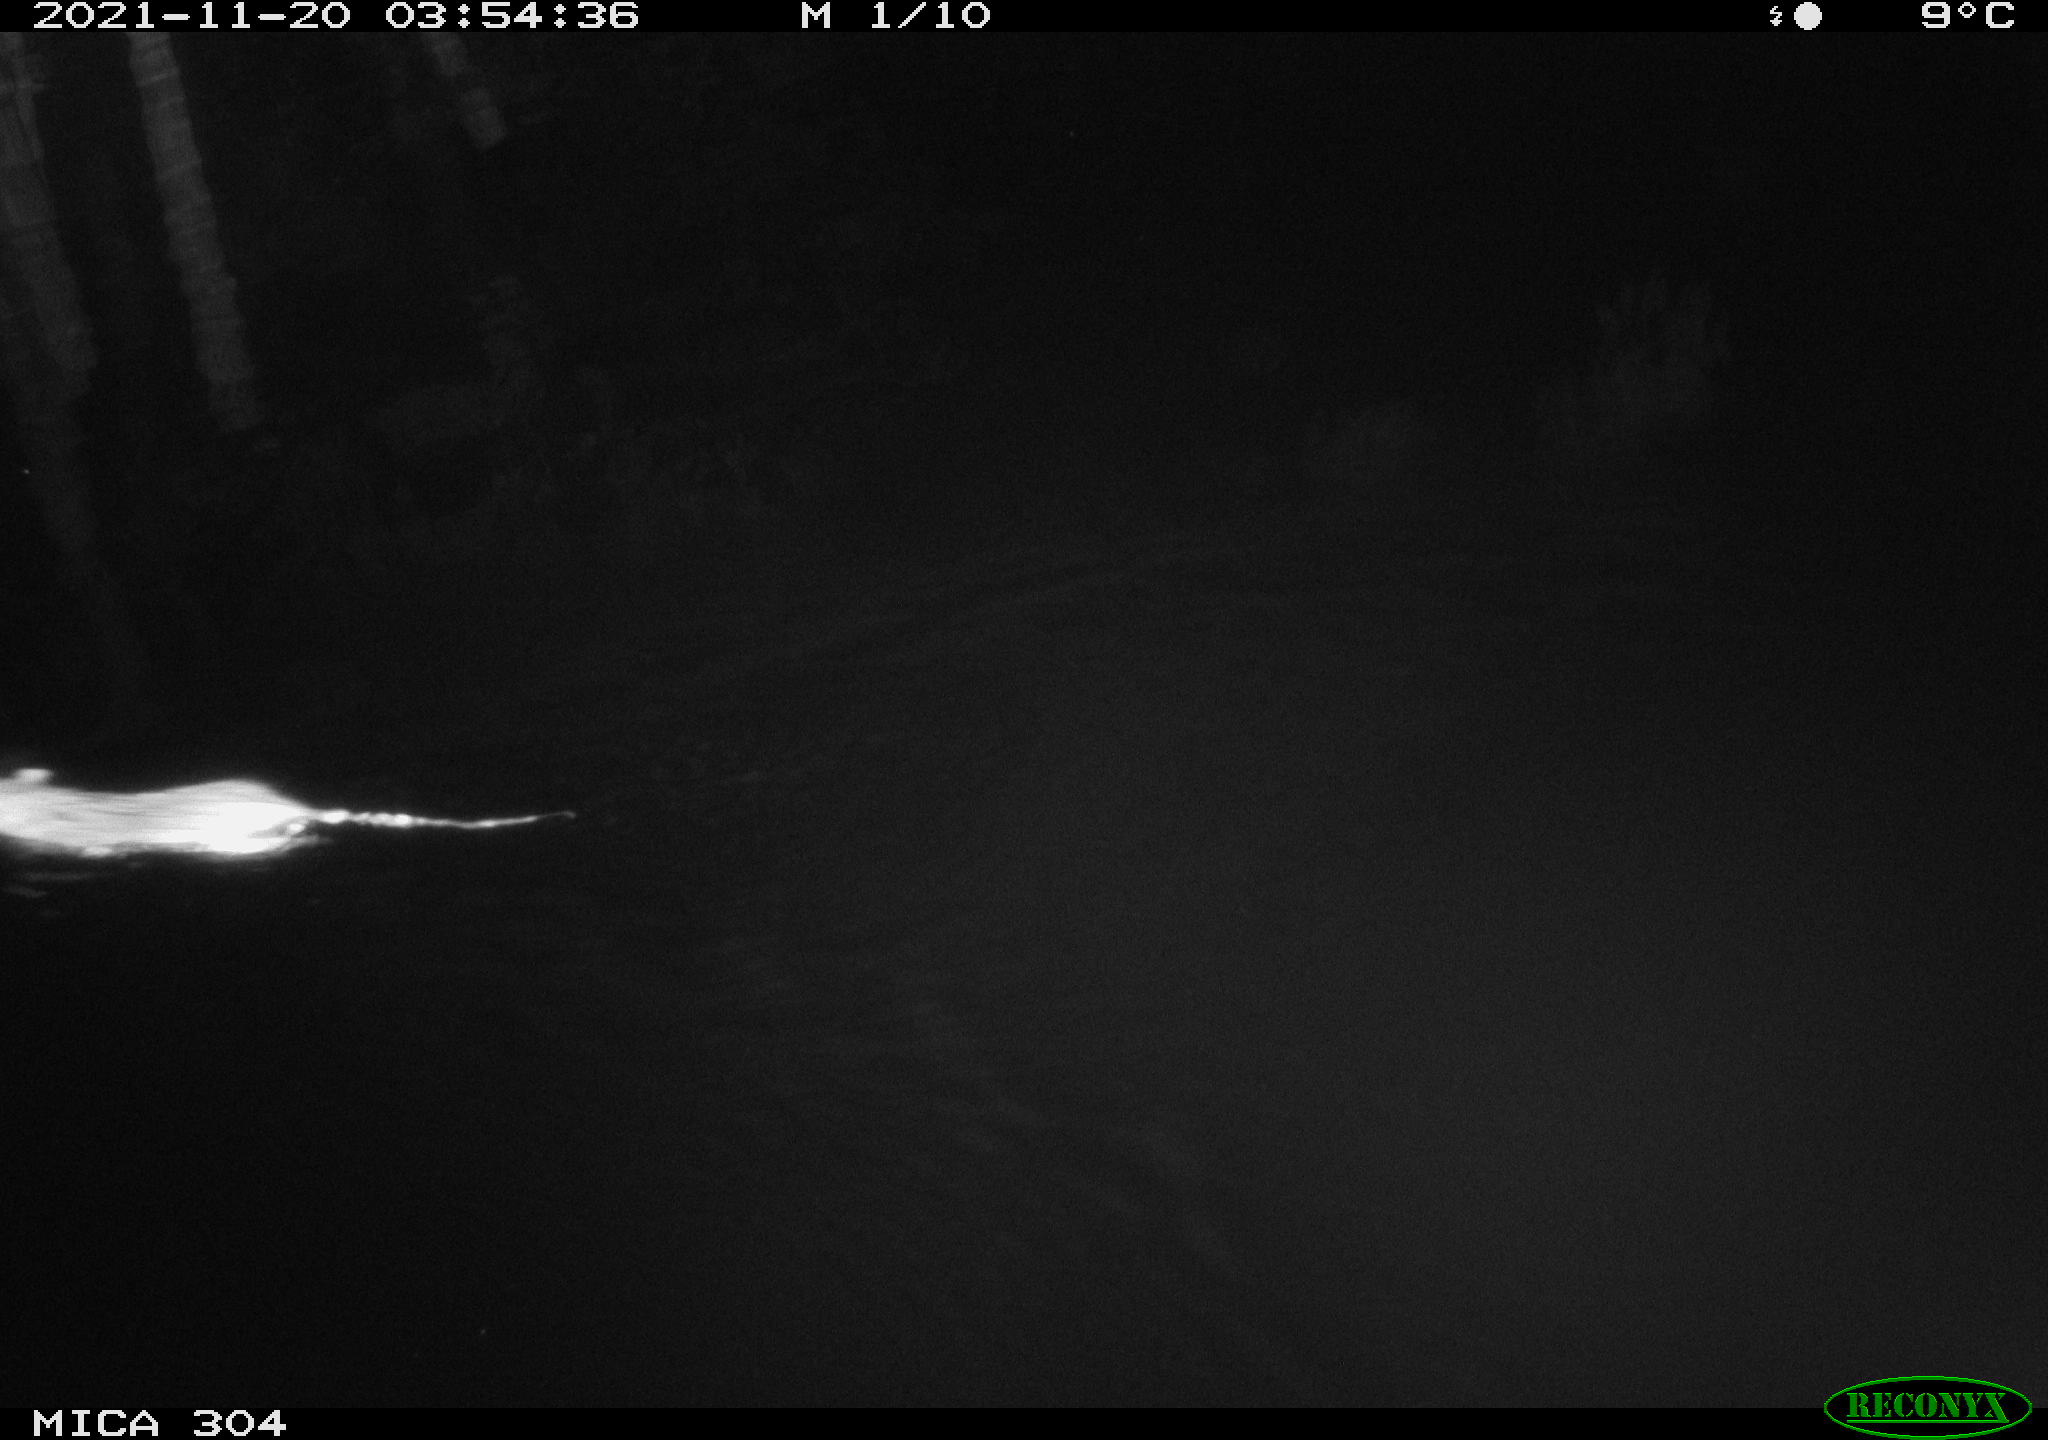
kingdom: Animalia
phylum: Chordata
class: Mammalia
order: Rodentia
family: Muridae
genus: Rattus
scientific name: Rattus norvegicus
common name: Brown rat
